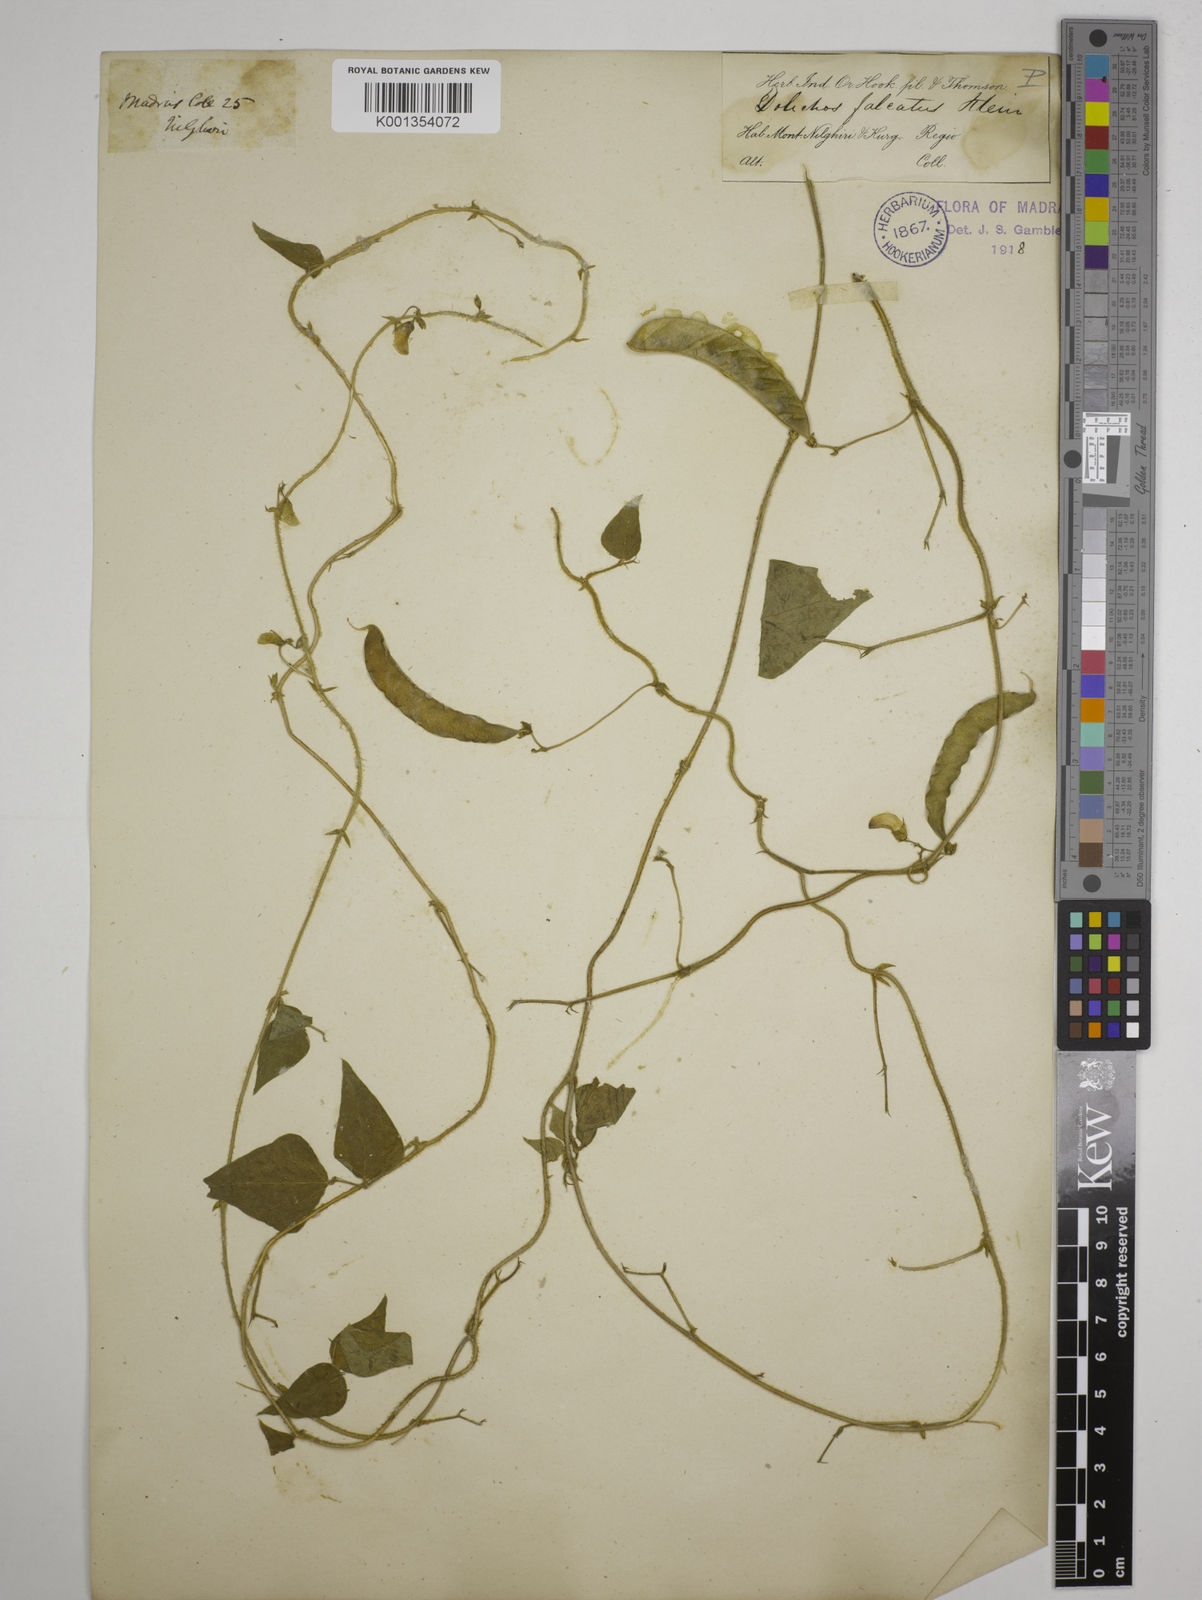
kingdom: Plantae
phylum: Tracheophyta
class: Magnoliopsida
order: Fabales
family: Fabaceae
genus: Dolichos
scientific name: Dolichos
